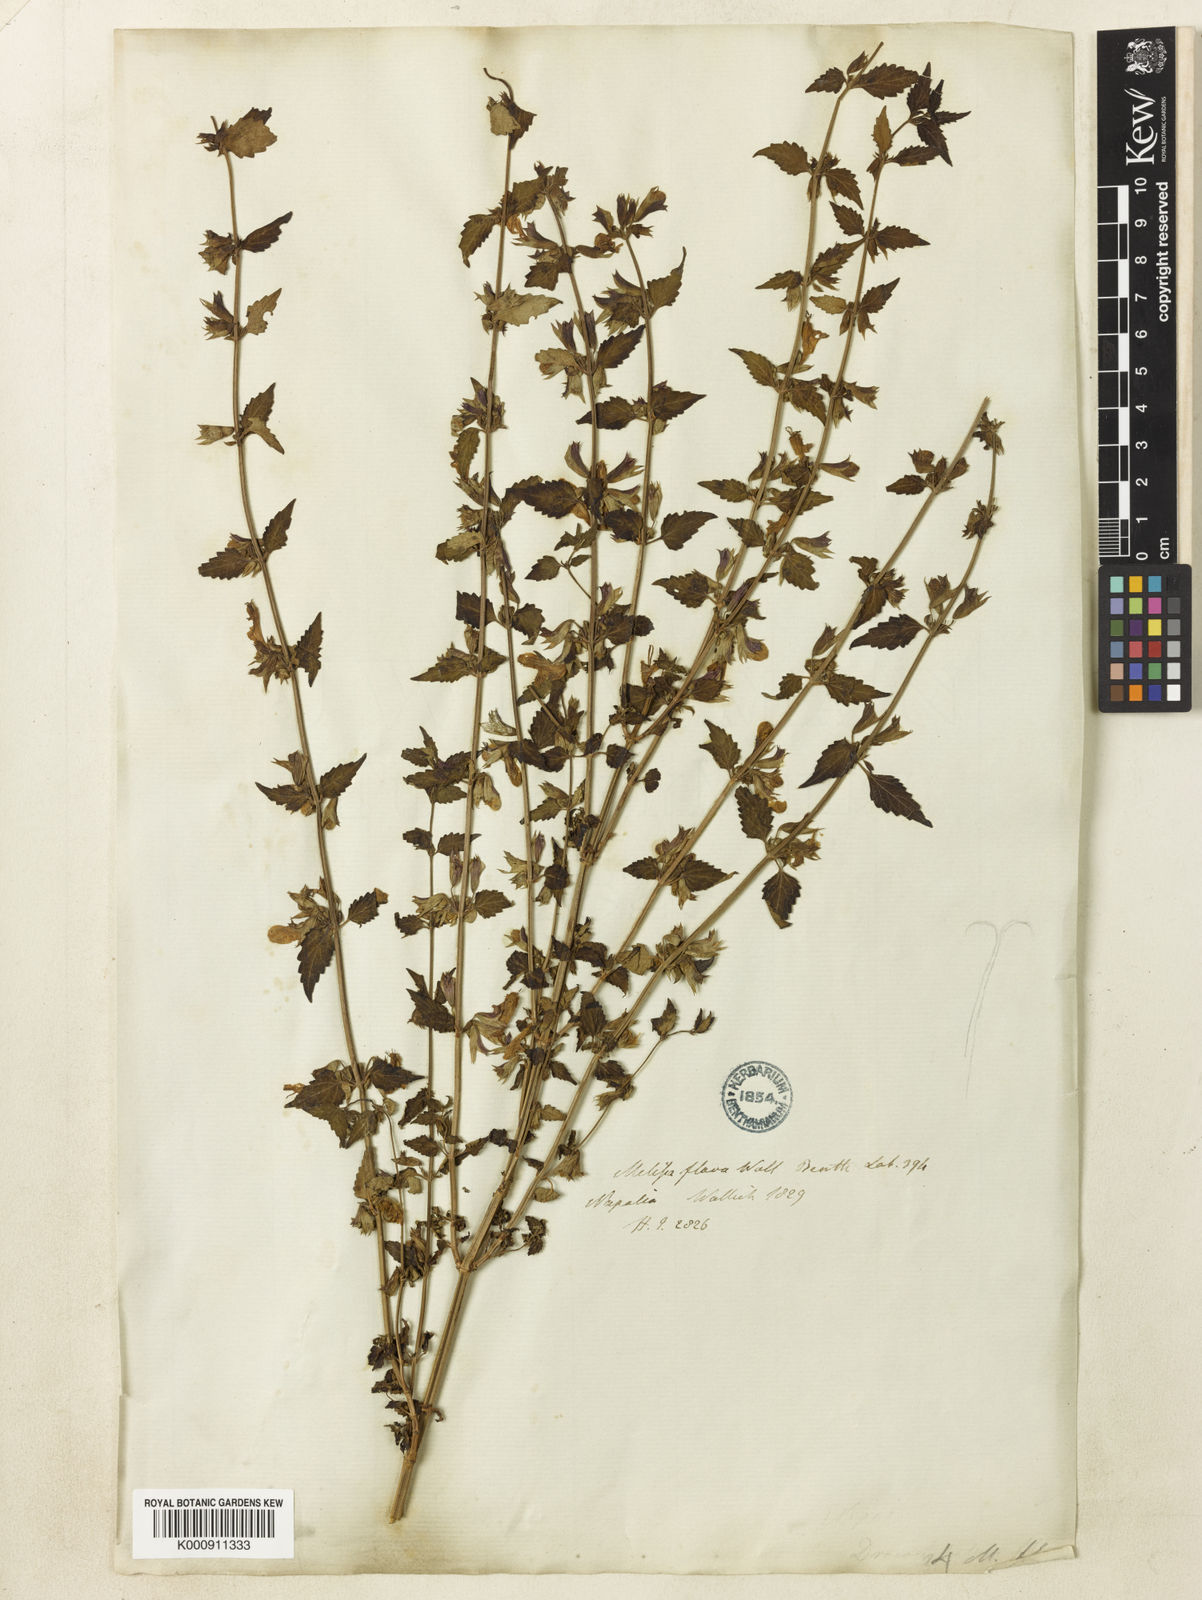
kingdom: Plantae
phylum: Tracheophyta
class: Magnoliopsida
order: Lamiales
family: Lamiaceae
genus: Melissa
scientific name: Melissa flava
